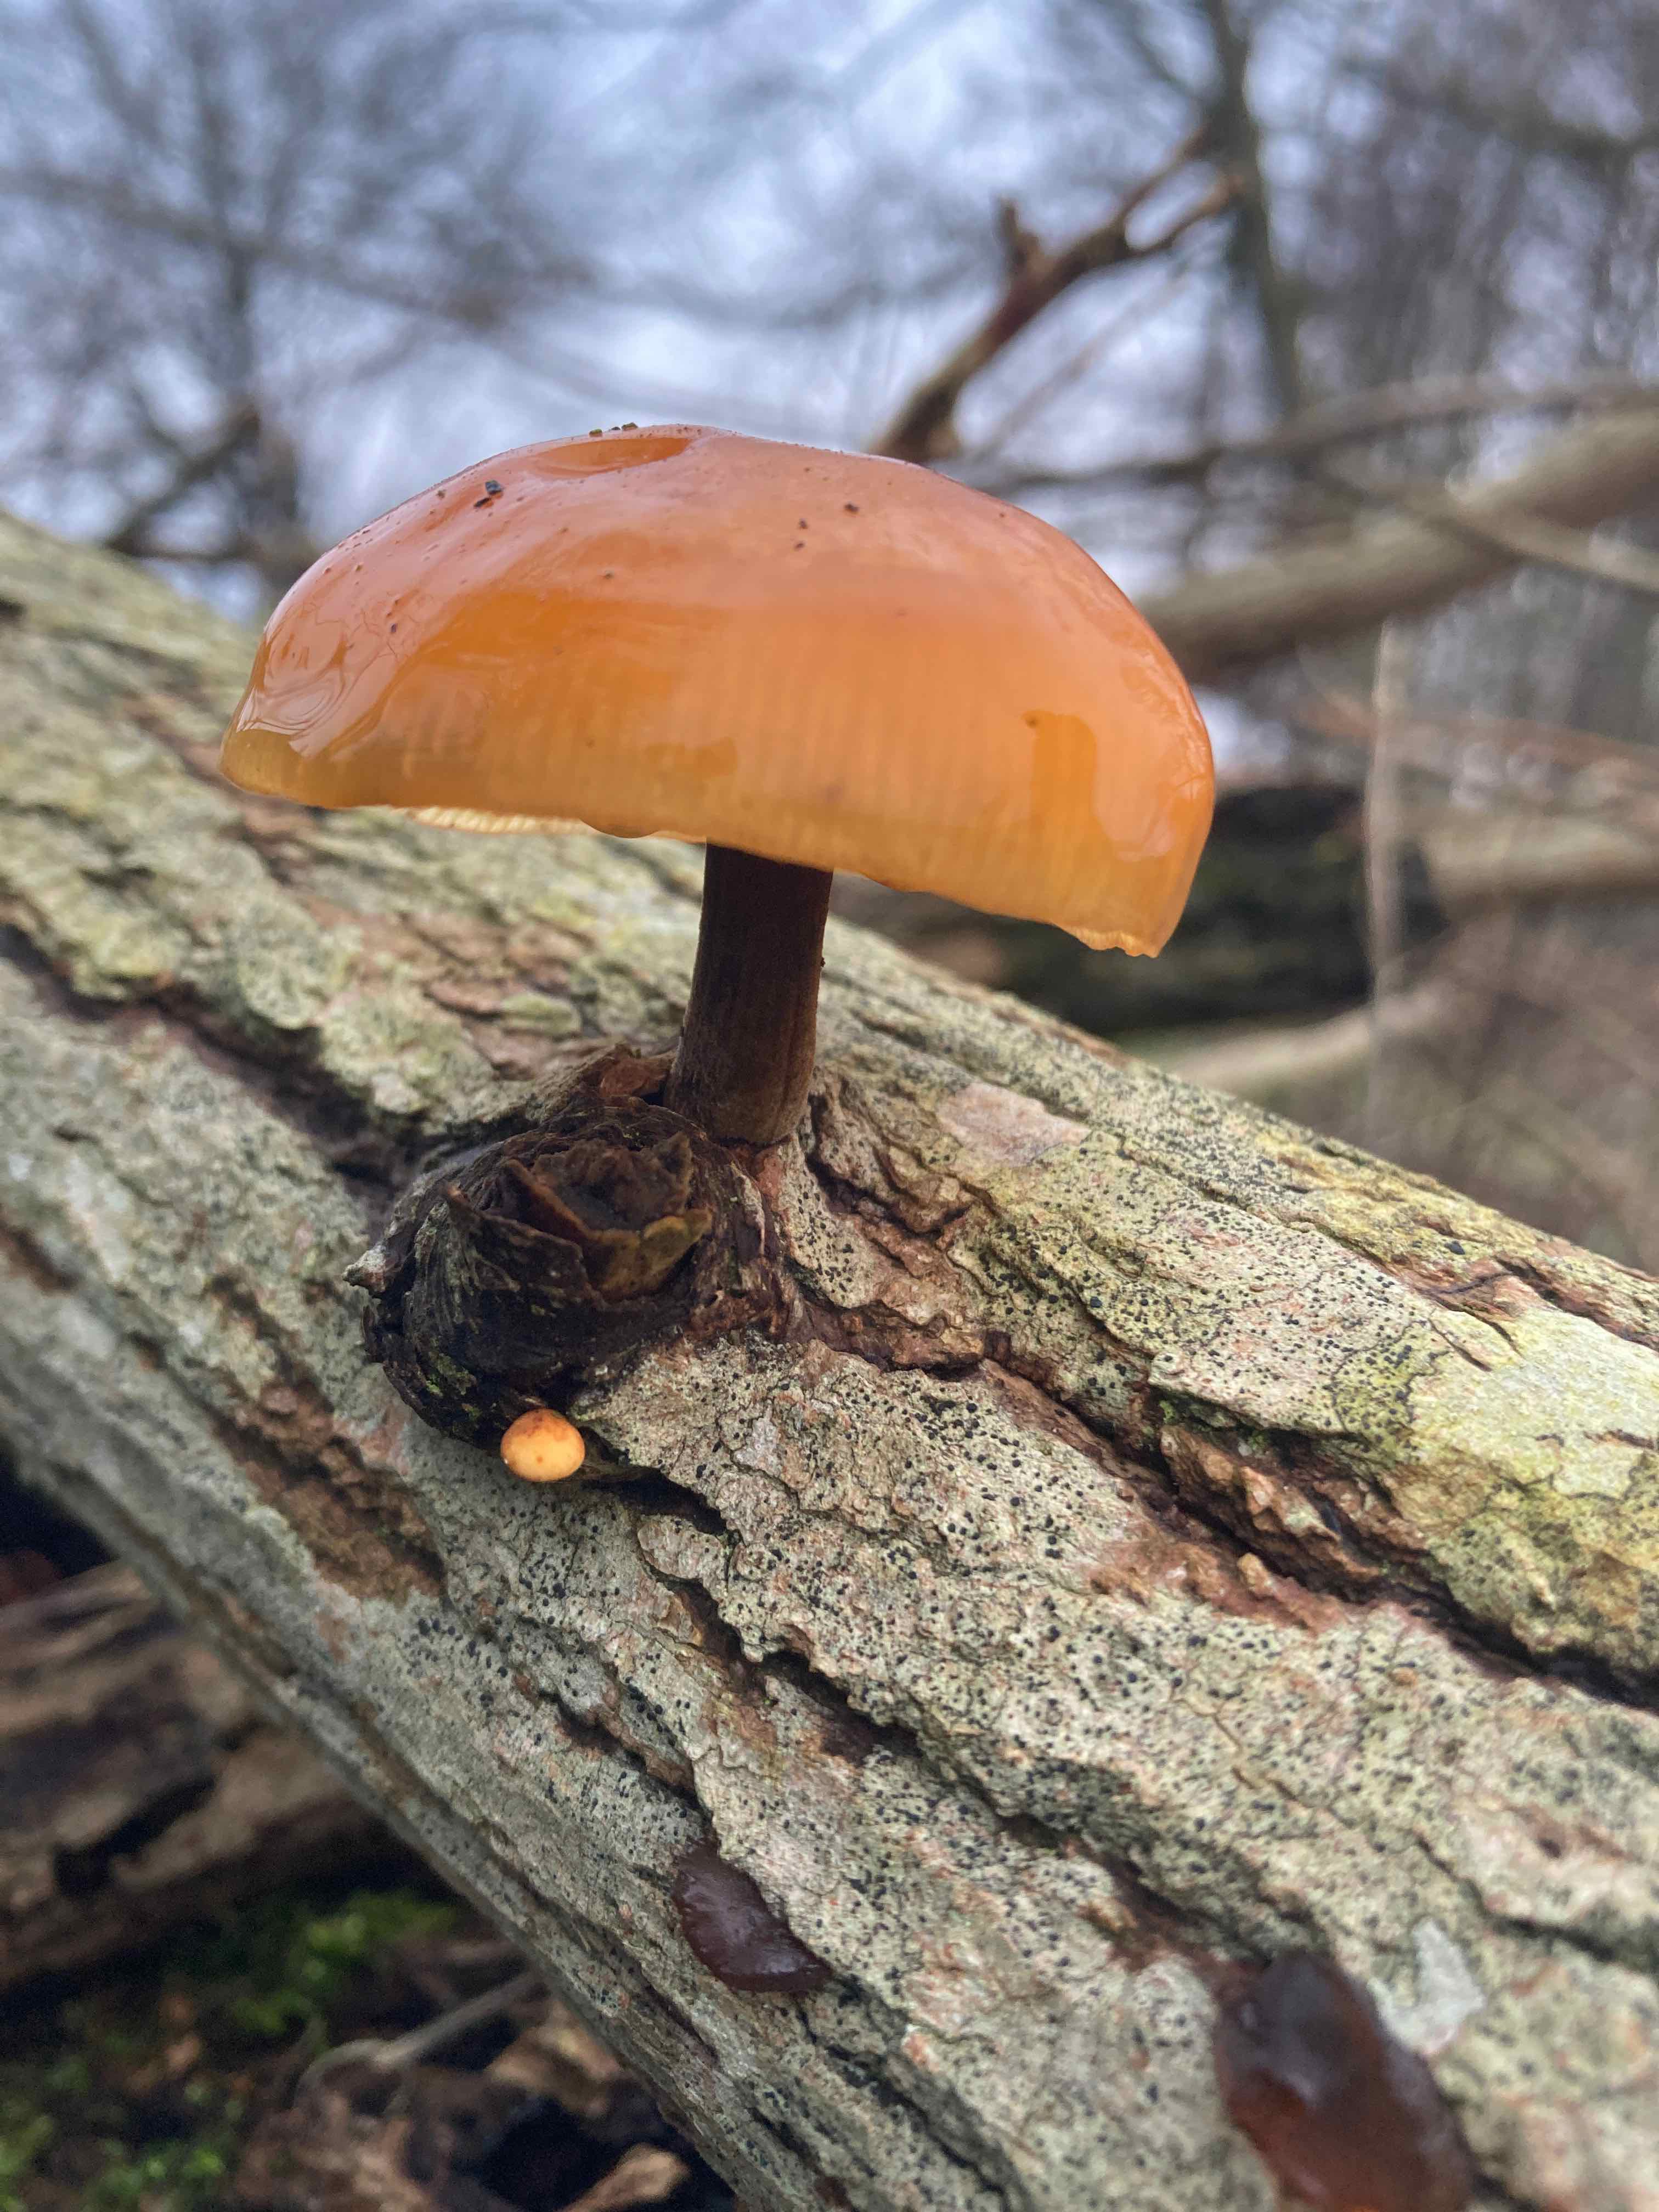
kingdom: Fungi
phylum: Basidiomycota
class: Agaricomycetes
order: Agaricales
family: Physalacriaceae
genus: Flammulina
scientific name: Flammulina
